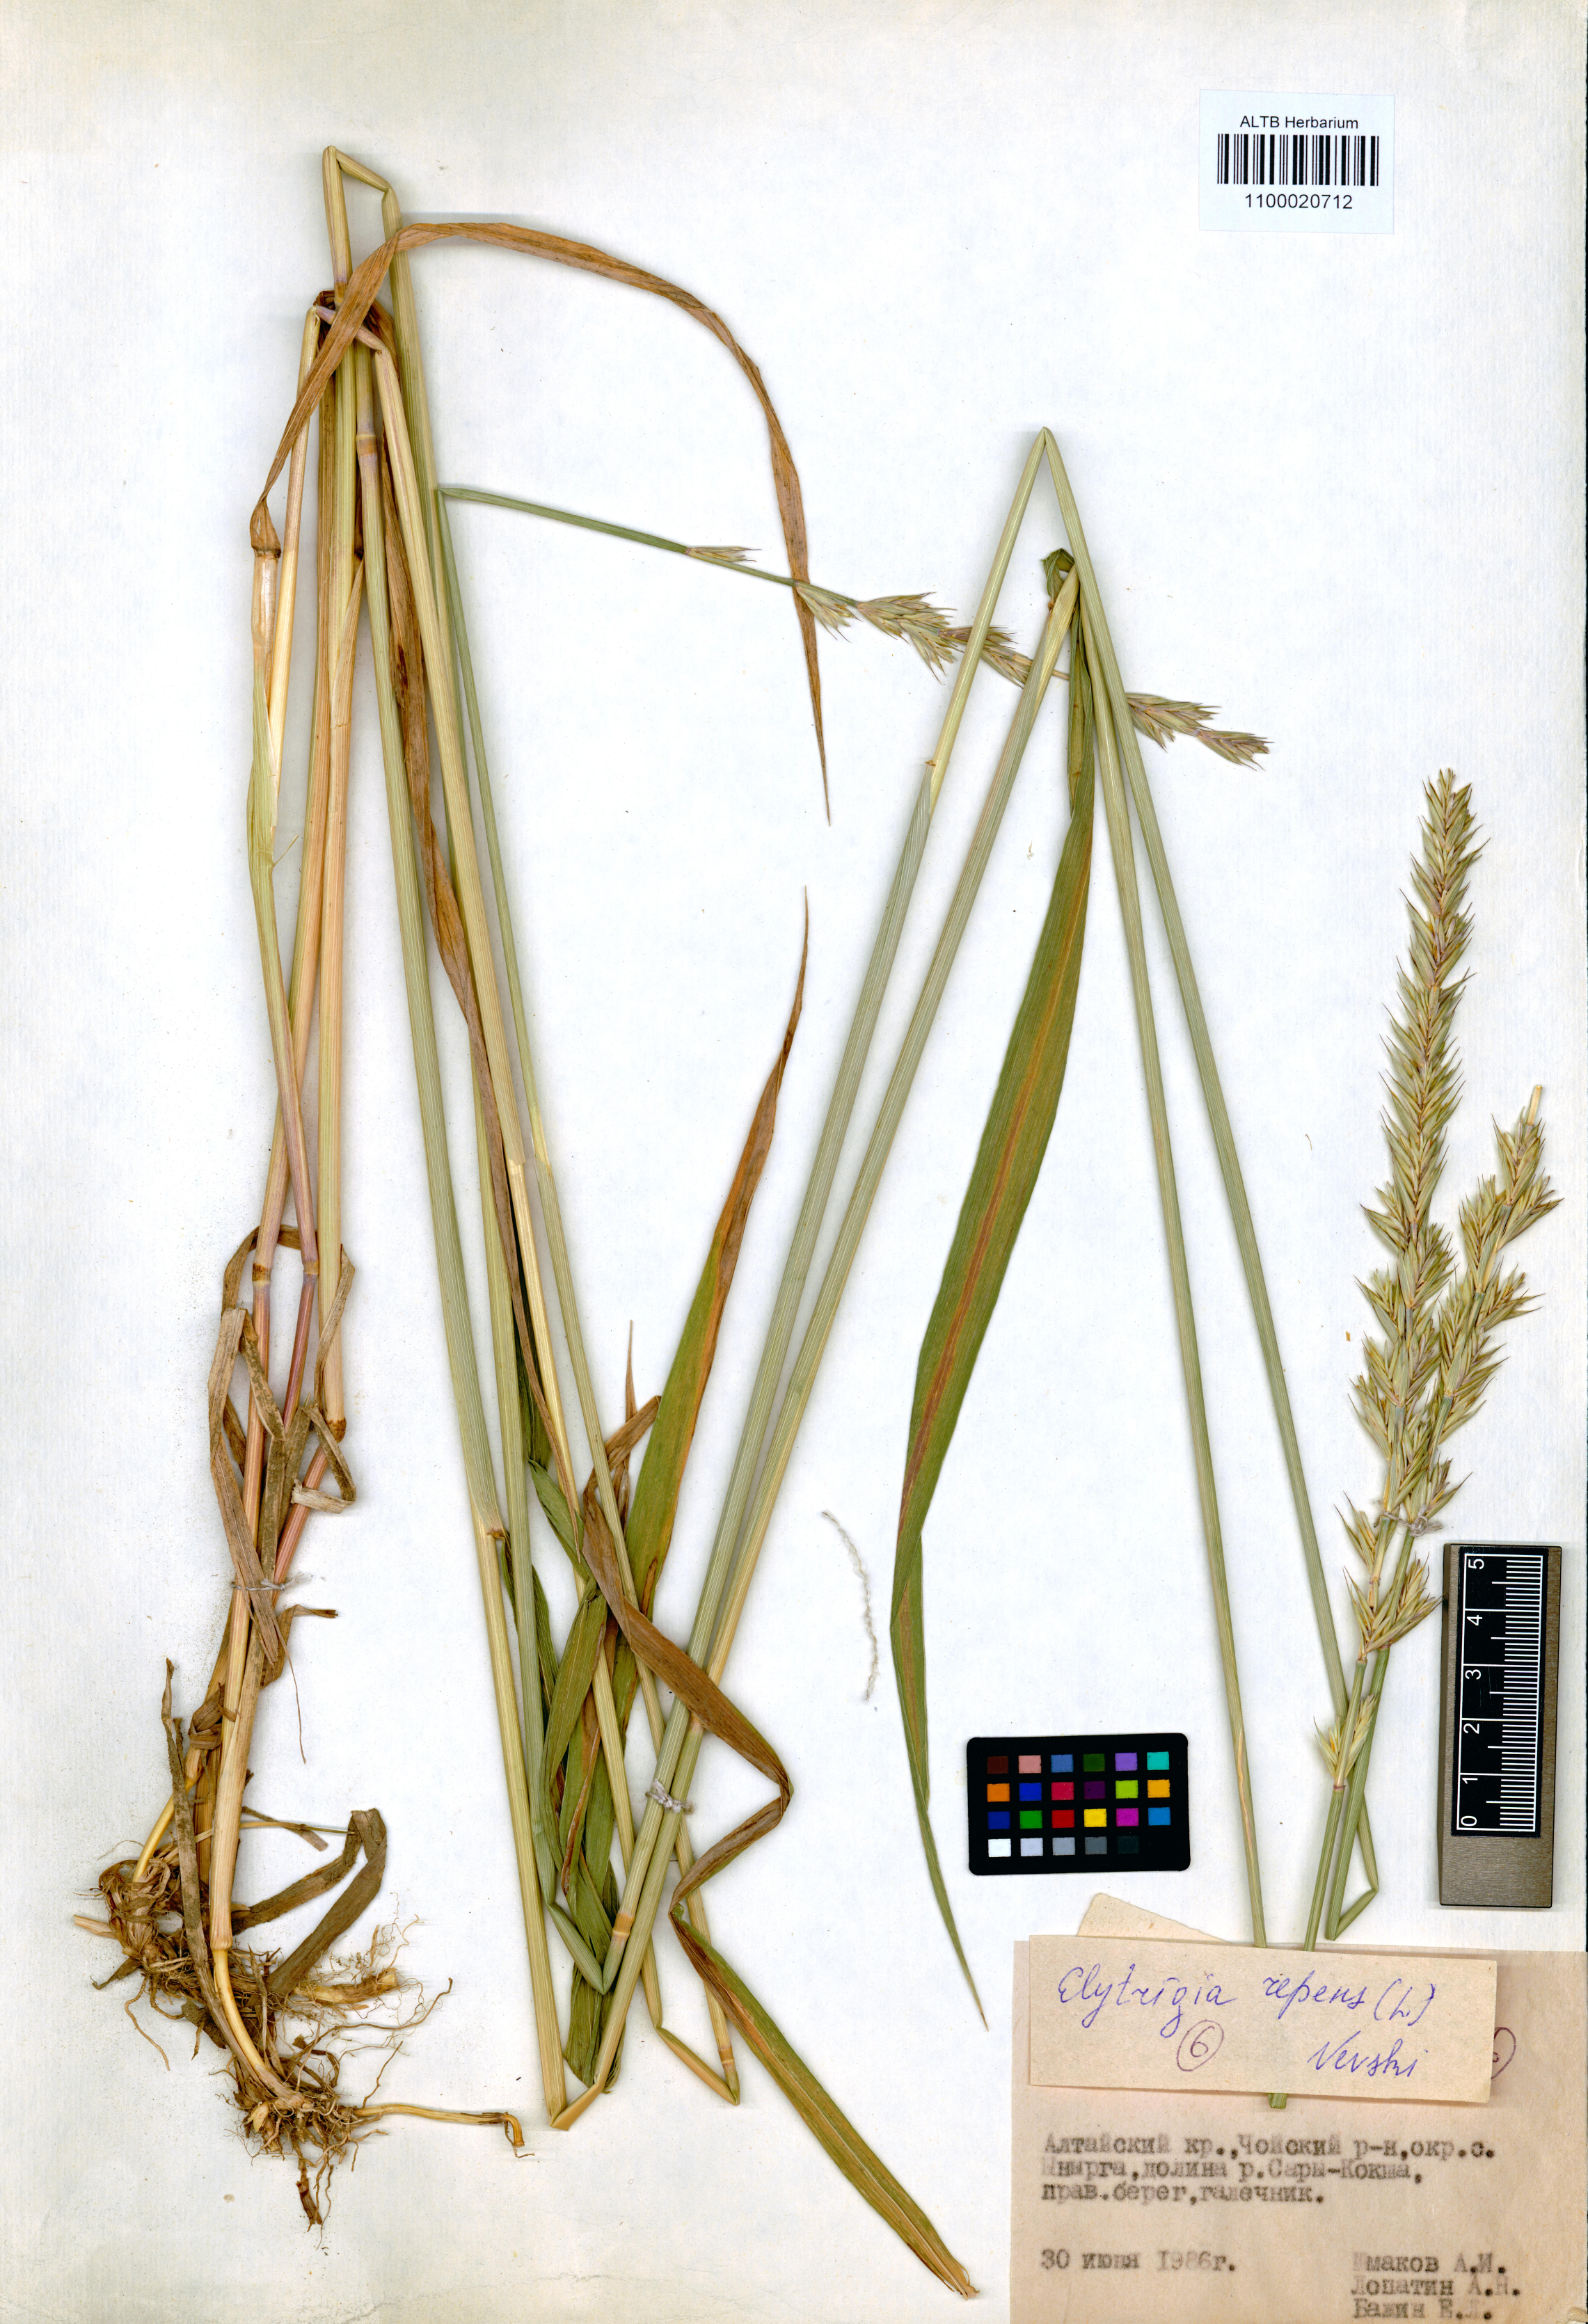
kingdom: Plantae
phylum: Tracheophyta
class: Liliopsida
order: Poales
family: Poaceae
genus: Elymus
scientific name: Elymus repens
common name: Quackgrass
